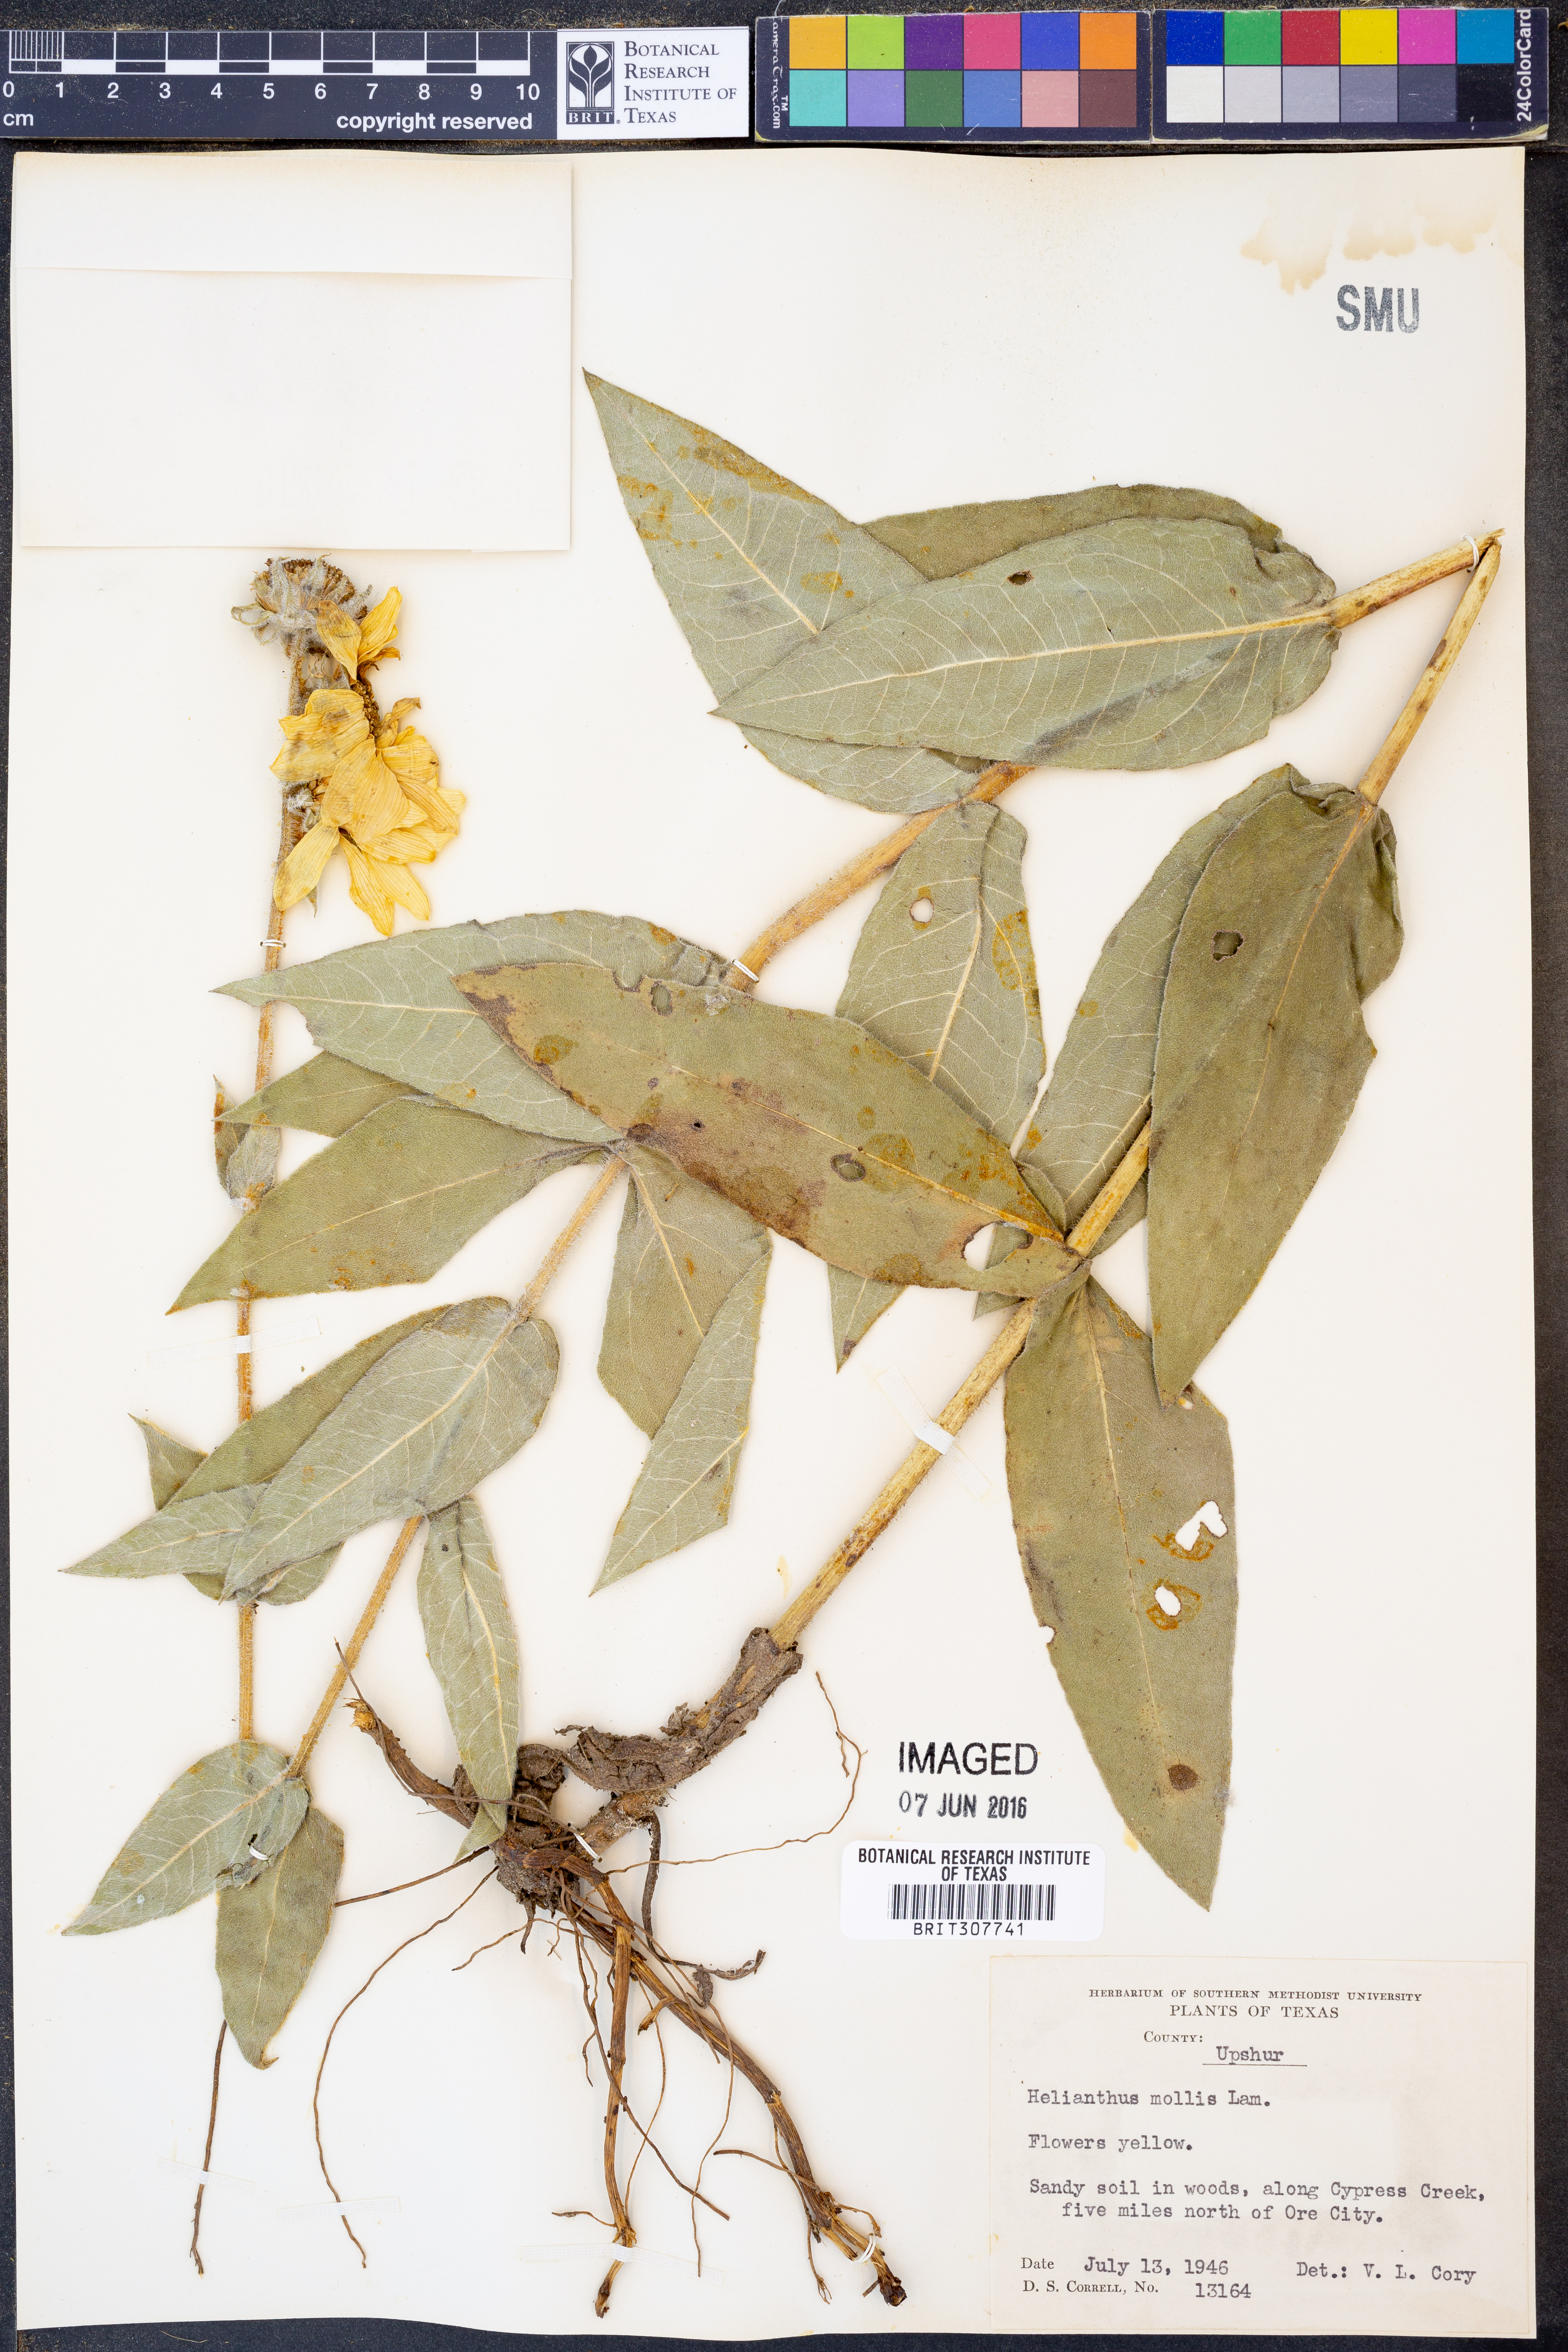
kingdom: Plantae
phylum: Tracheophyta
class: Magnoliopsida
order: Asterales
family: Asteraceae
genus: Helianthus
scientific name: Helianthus mollis
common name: Ashy sunflower
